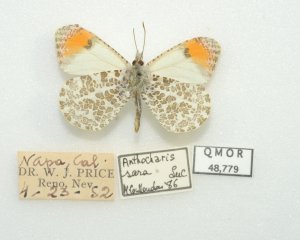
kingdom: Animalia
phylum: Arthropoda
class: Insecta
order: Lepidoptera
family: Pieridae
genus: Anthocharis
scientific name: Anthocharis sara
